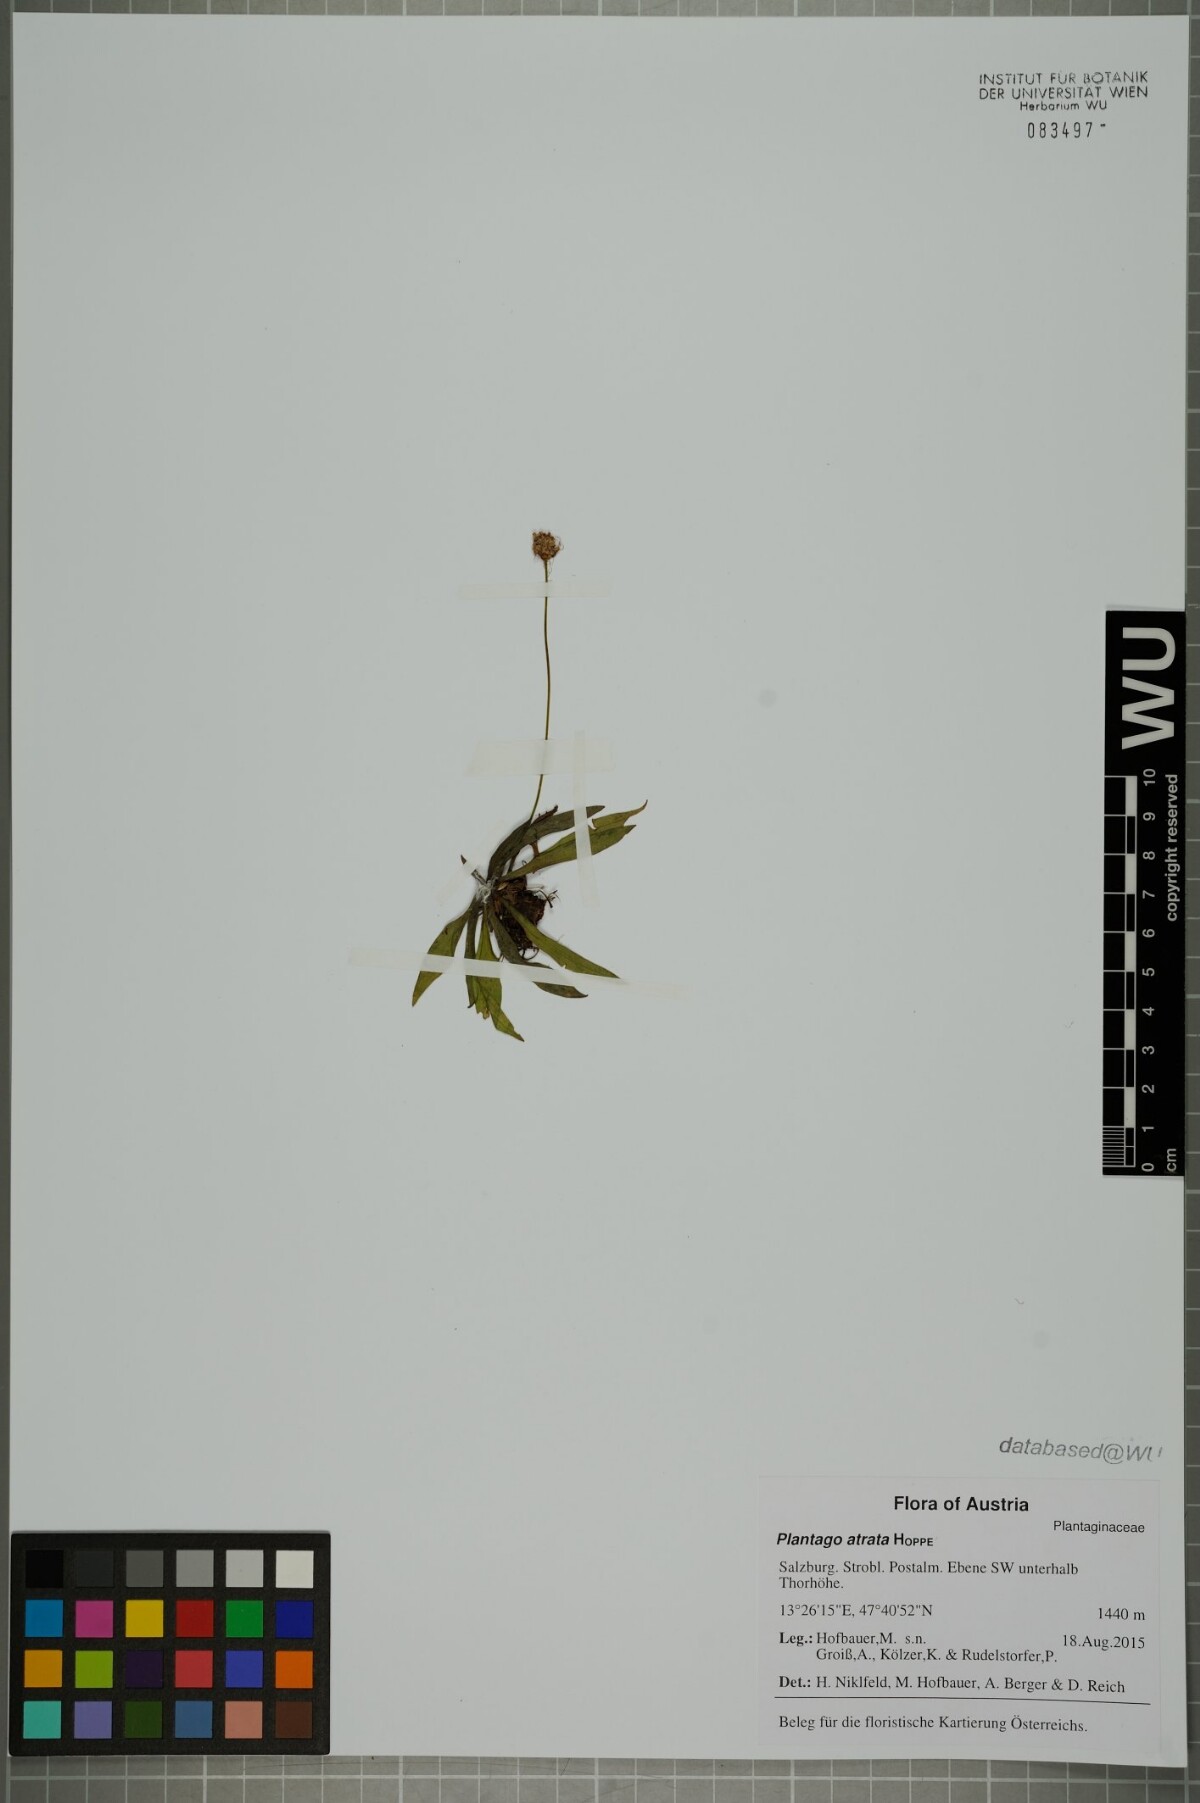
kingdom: Plantae
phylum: Tracheophyta
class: Magnoliopsida
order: Lamiales
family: Plantaginaceae
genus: Plantago
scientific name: Plantago atrata
